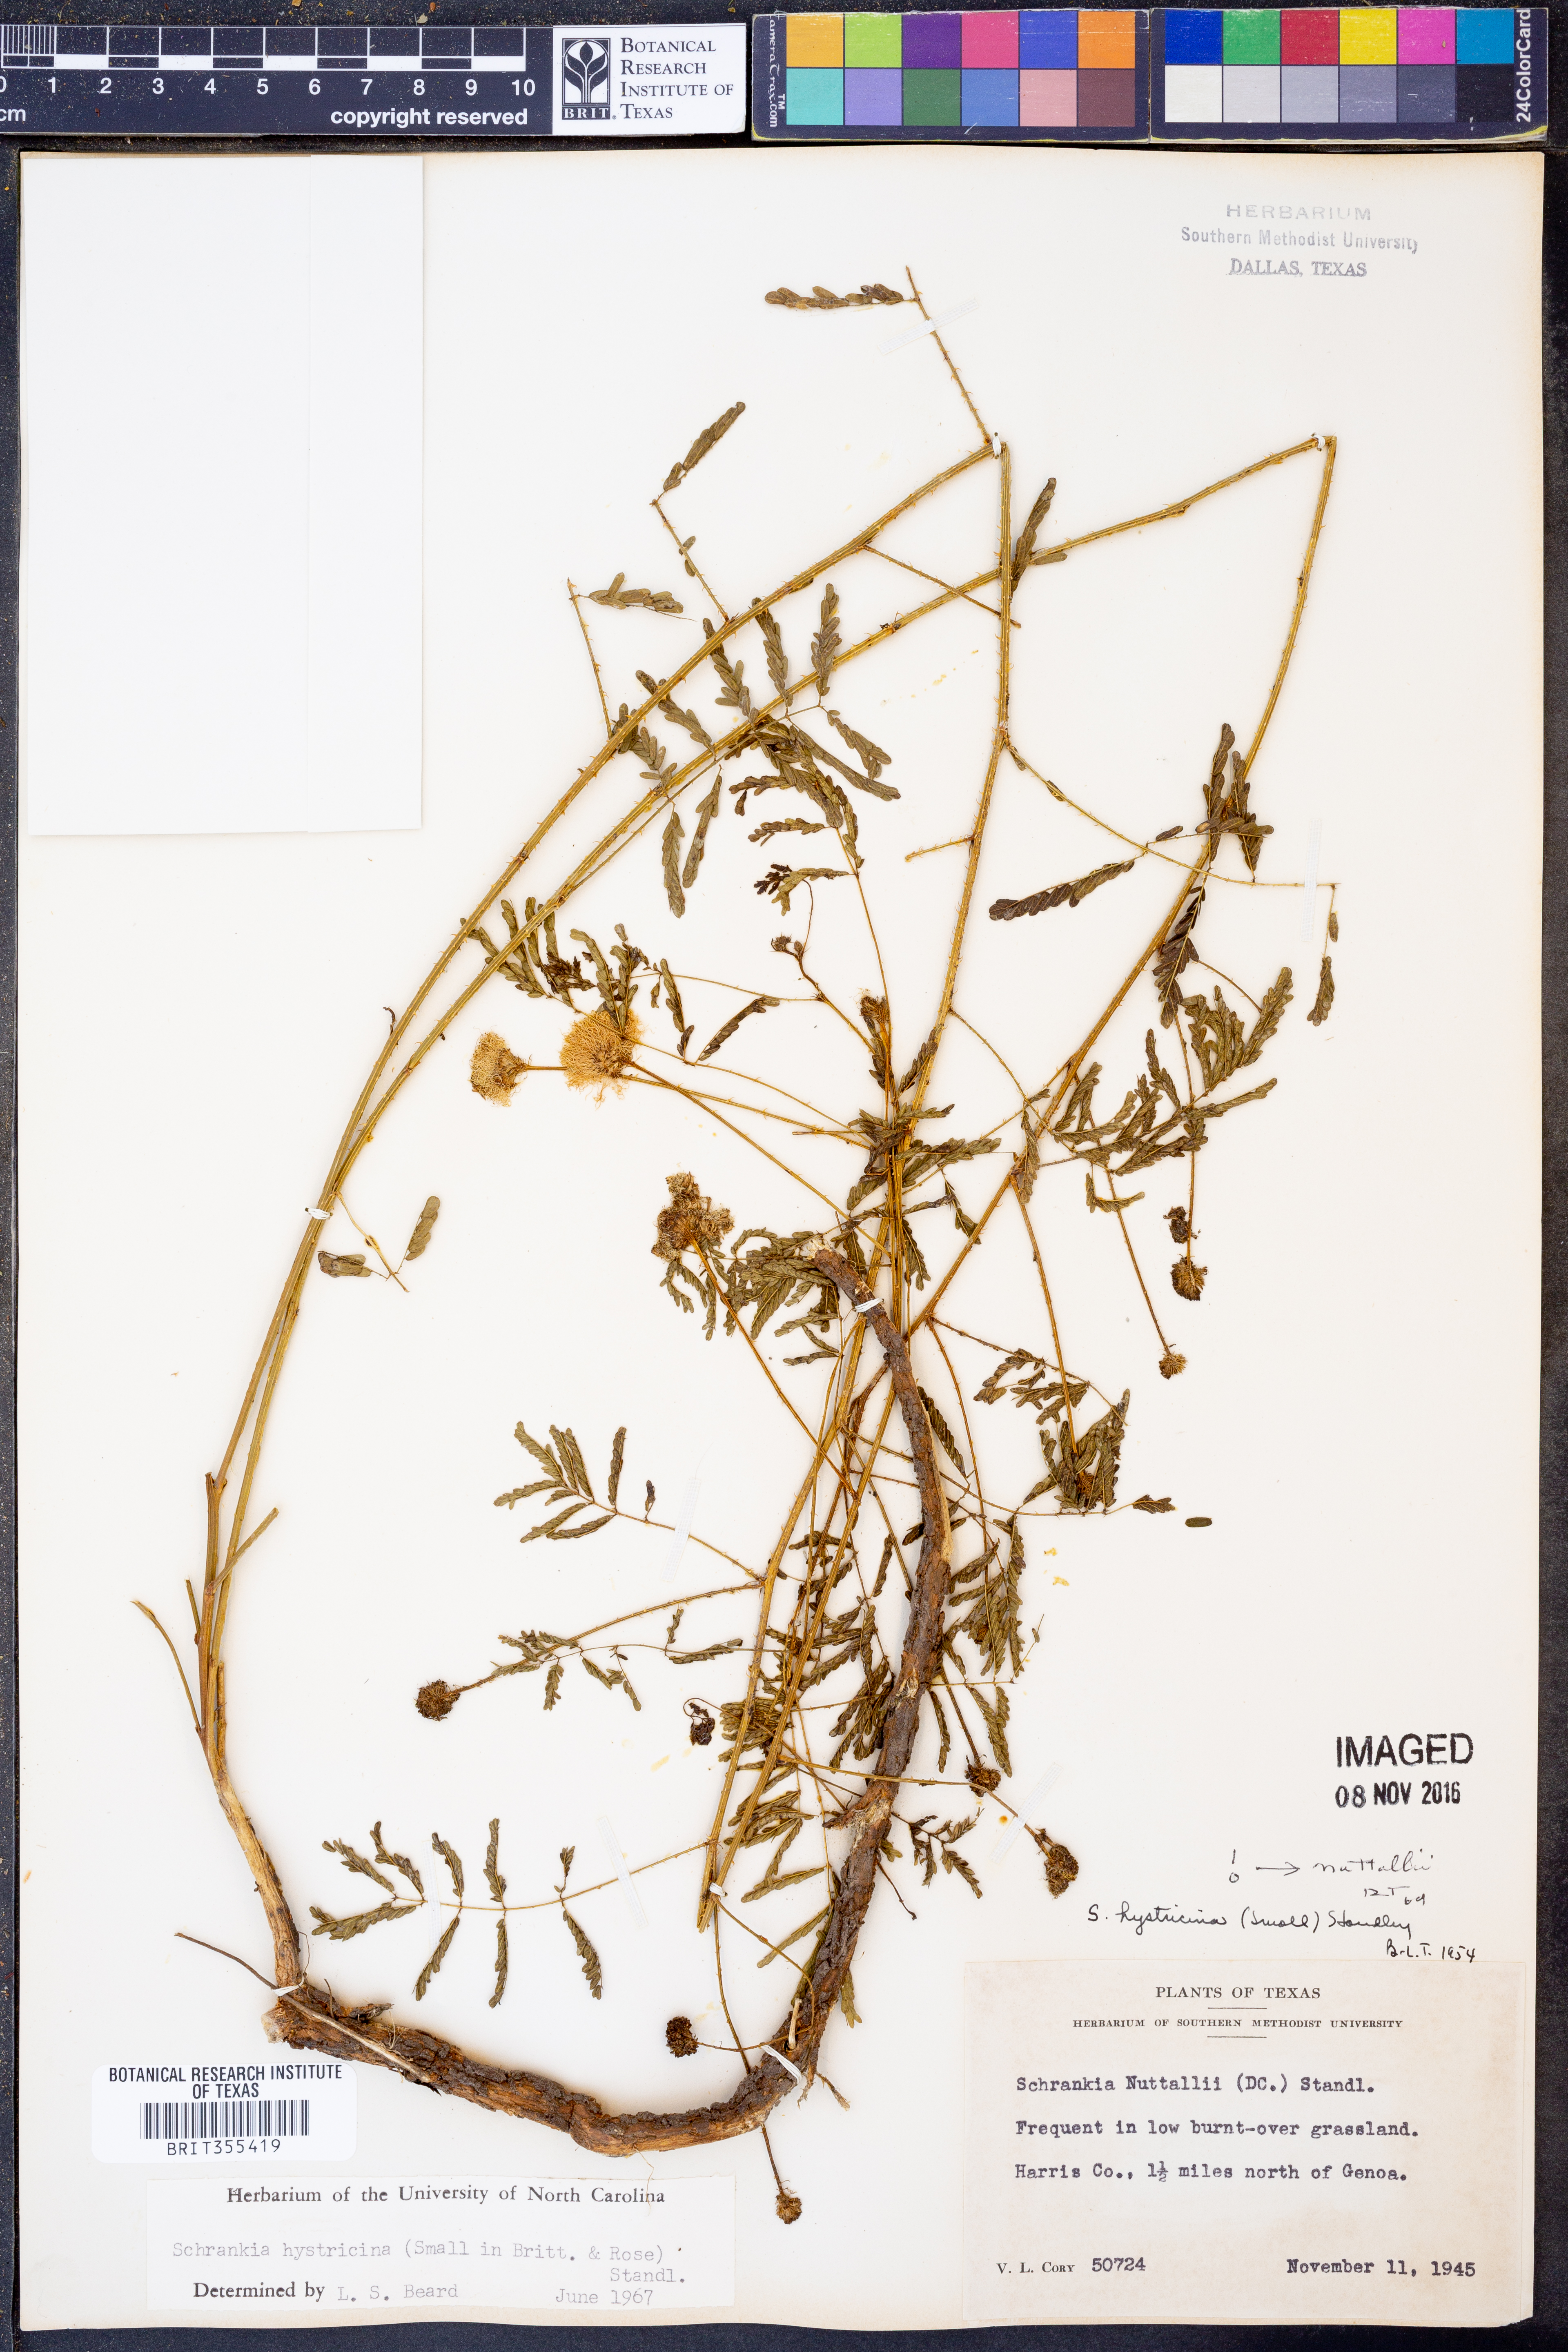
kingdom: Plantae
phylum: Tracheophyta
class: Magnoliopsida
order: Fabales
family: Fabaceae
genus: Mimosa
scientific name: Mimosa hystricina
